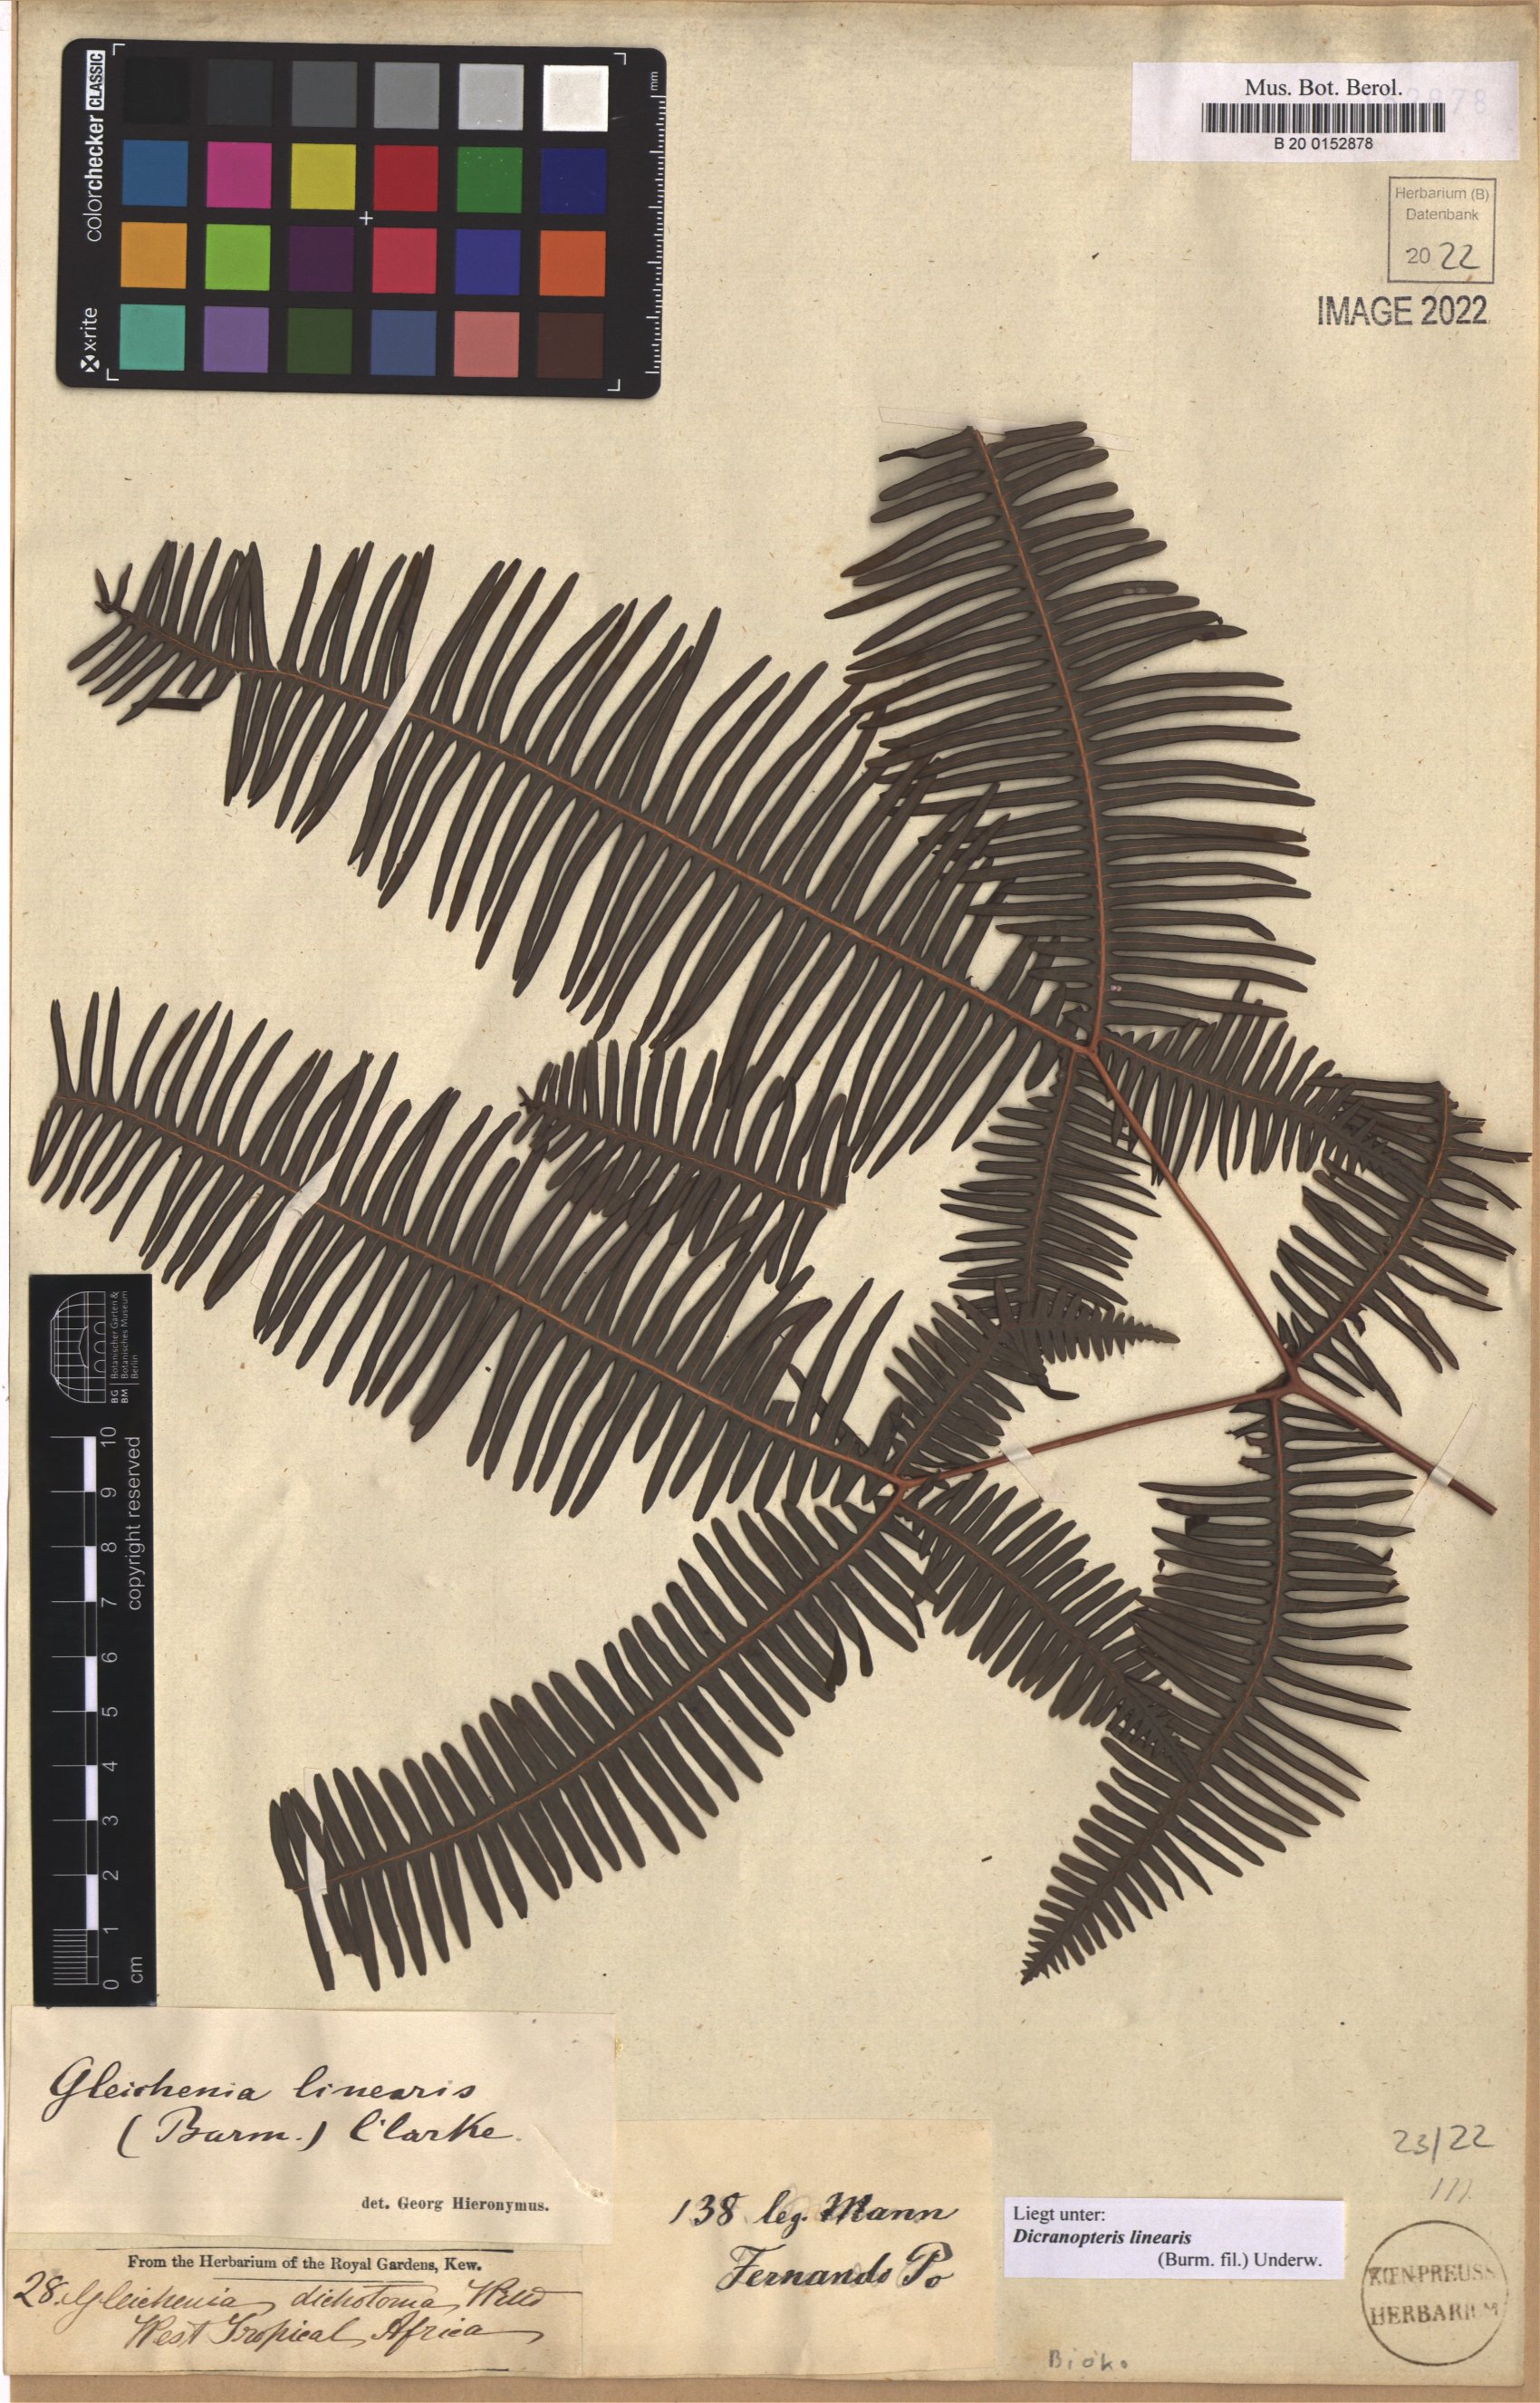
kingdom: Plantae
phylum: Tracheophyta
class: Polypodiopsida
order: Gleicheniales
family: Gleicheniaceae
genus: Dicranopteris
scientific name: Dicranopteris linearis
